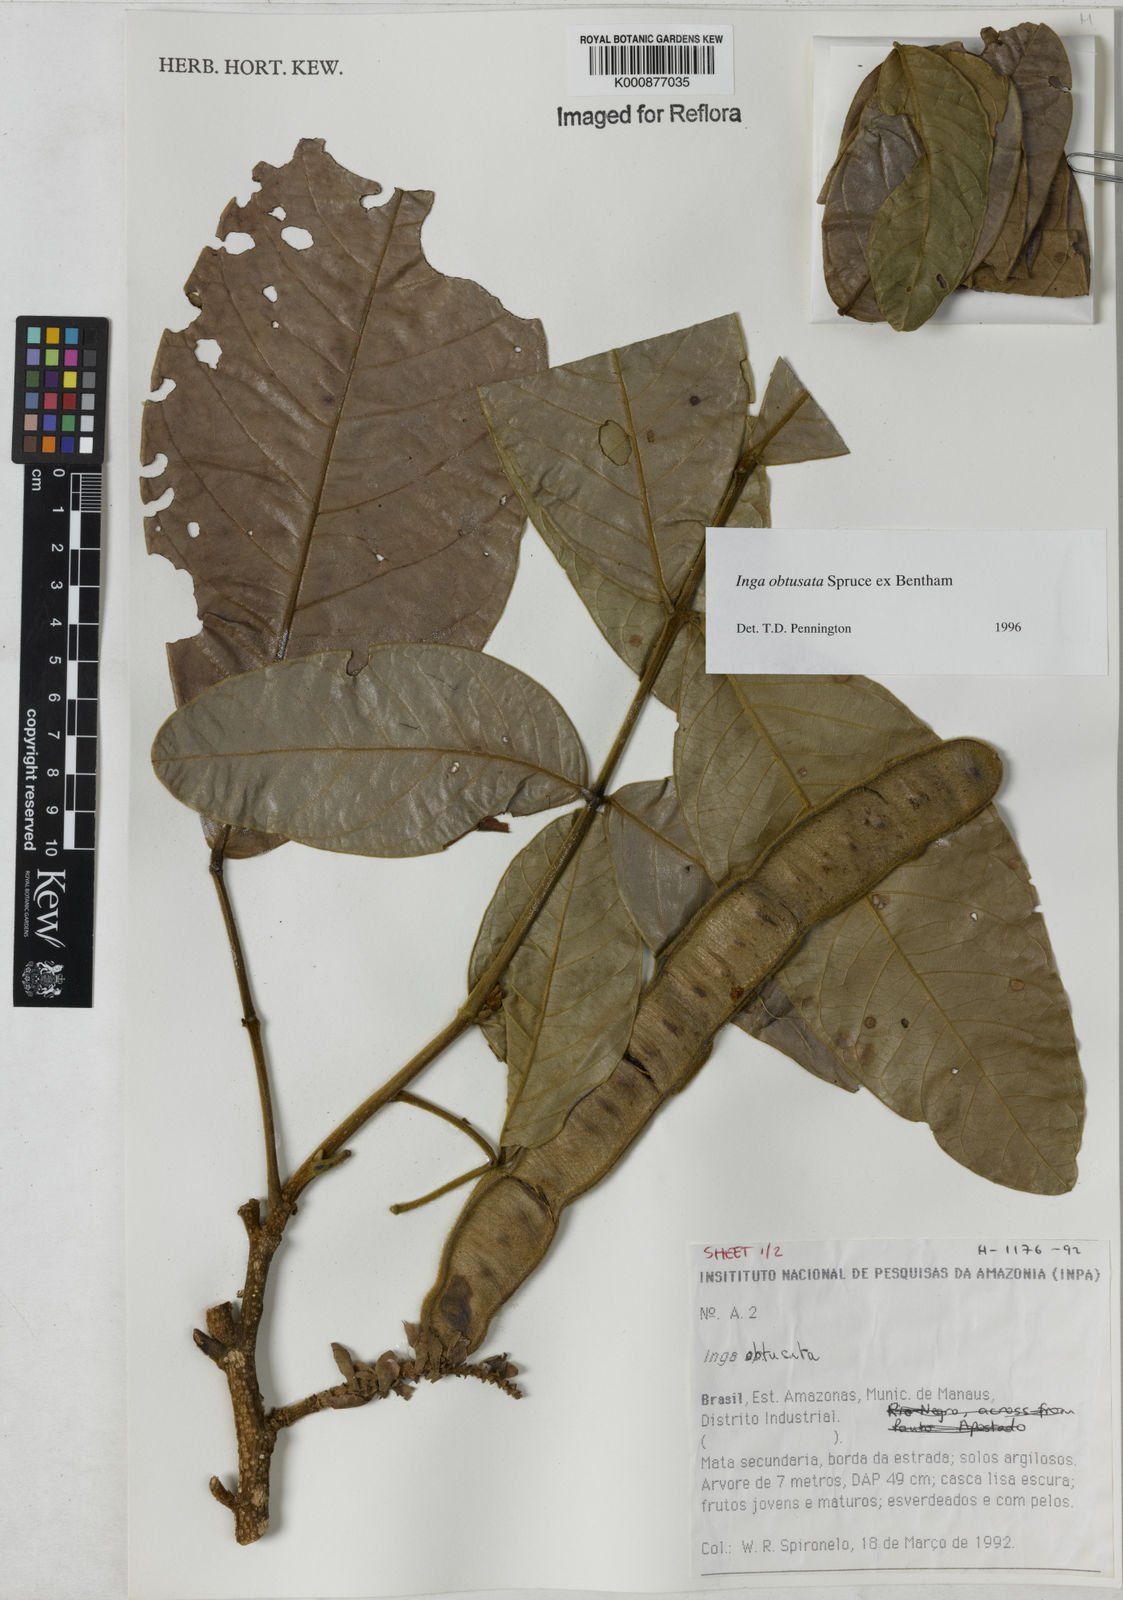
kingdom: Plantae
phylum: Tracheophyta
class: Magnoliopsida
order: Fabales
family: Fabaceae
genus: Inga
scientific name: Inga obtusata
